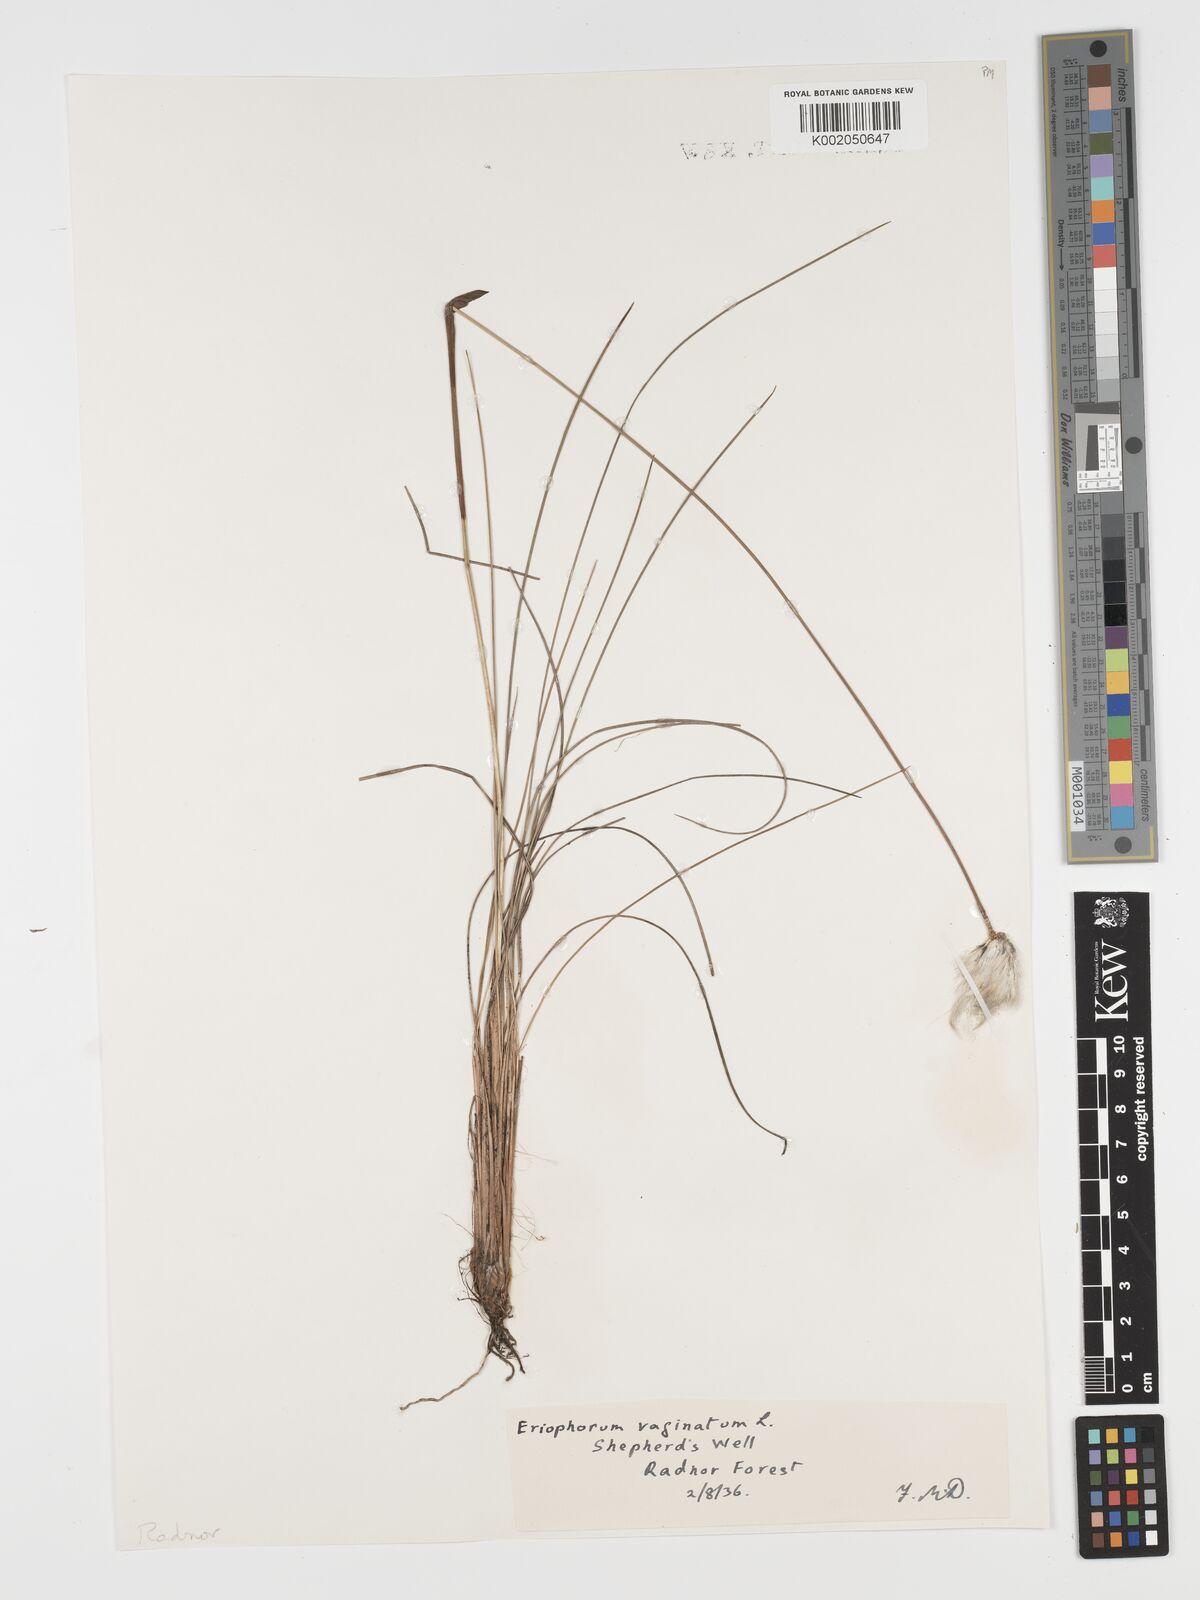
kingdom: Plantae
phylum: Tracheophyta
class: Liliopsida
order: Poales
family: Cyperaceae
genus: Eriophorum
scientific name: Eriophorum vaginatum
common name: Hare's-tail cottongrass
